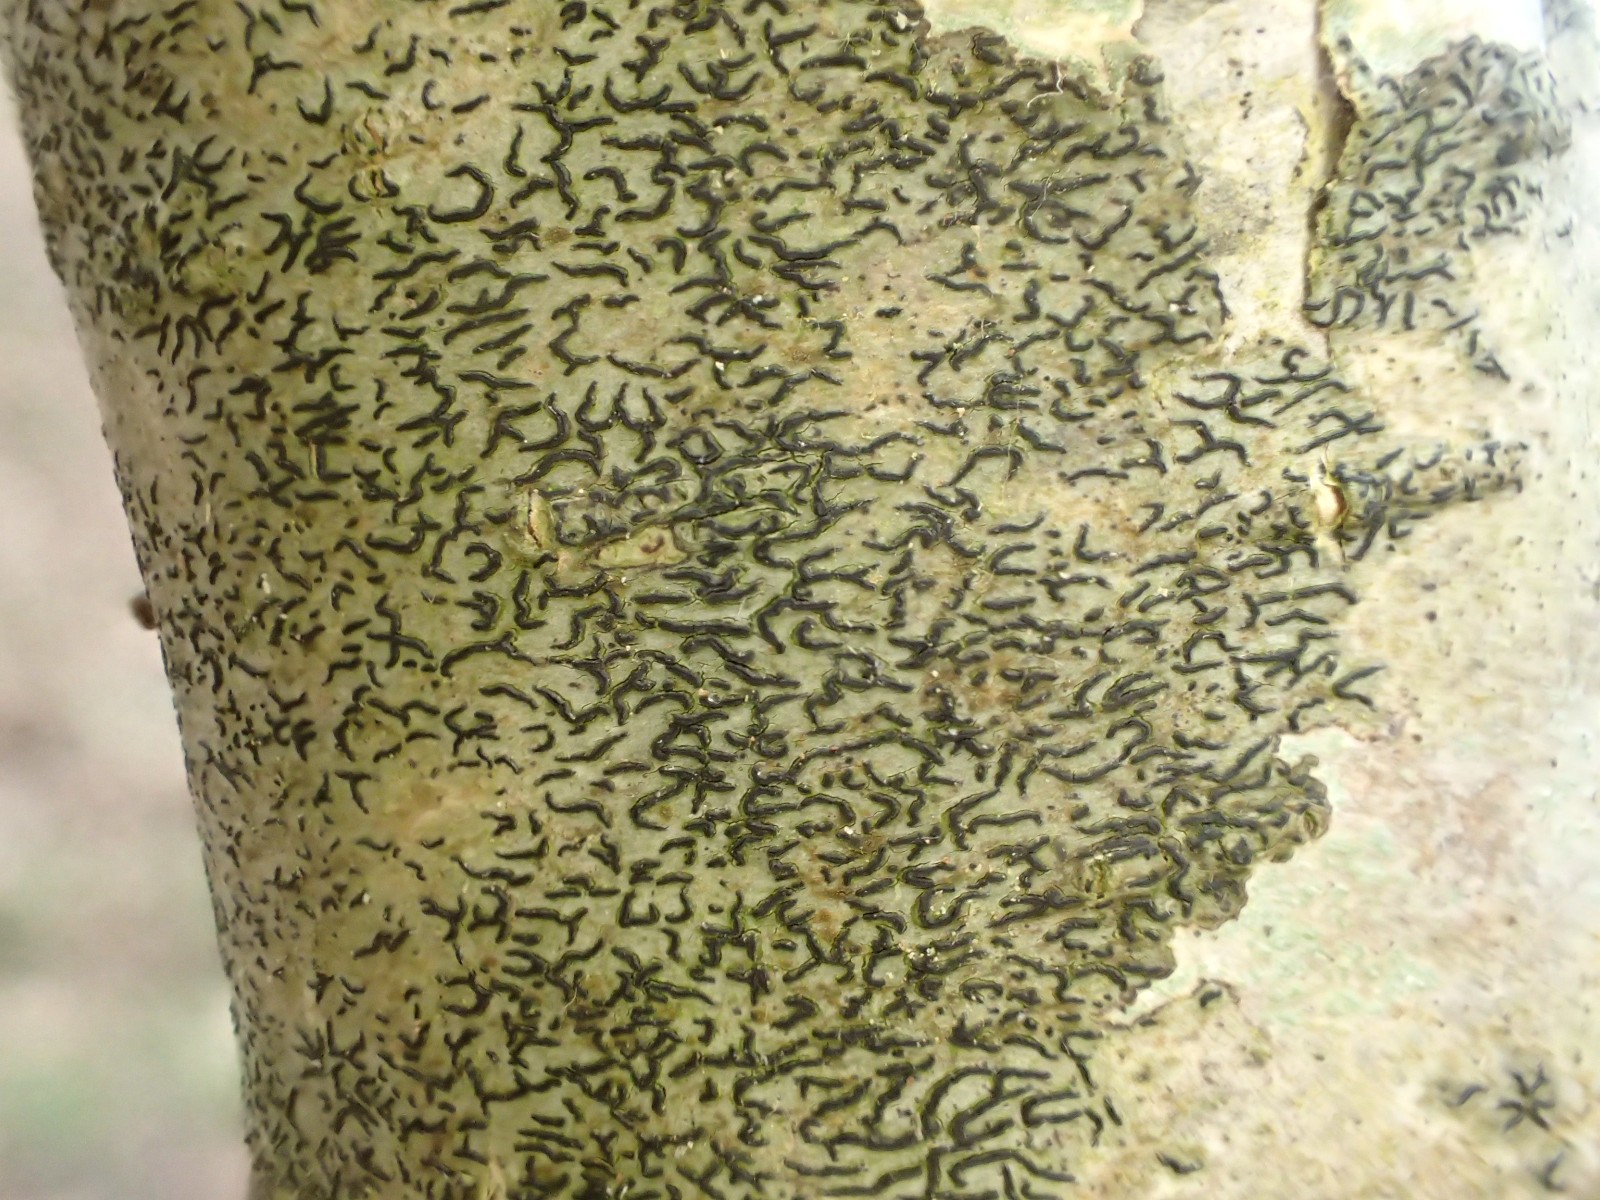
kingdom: Fungi
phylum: Ascomycota
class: Arthoniomycetes
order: Arthoniales
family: Arthoniaceae
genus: Arthonia
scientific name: Arthonia atra
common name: sort bogstavlav
